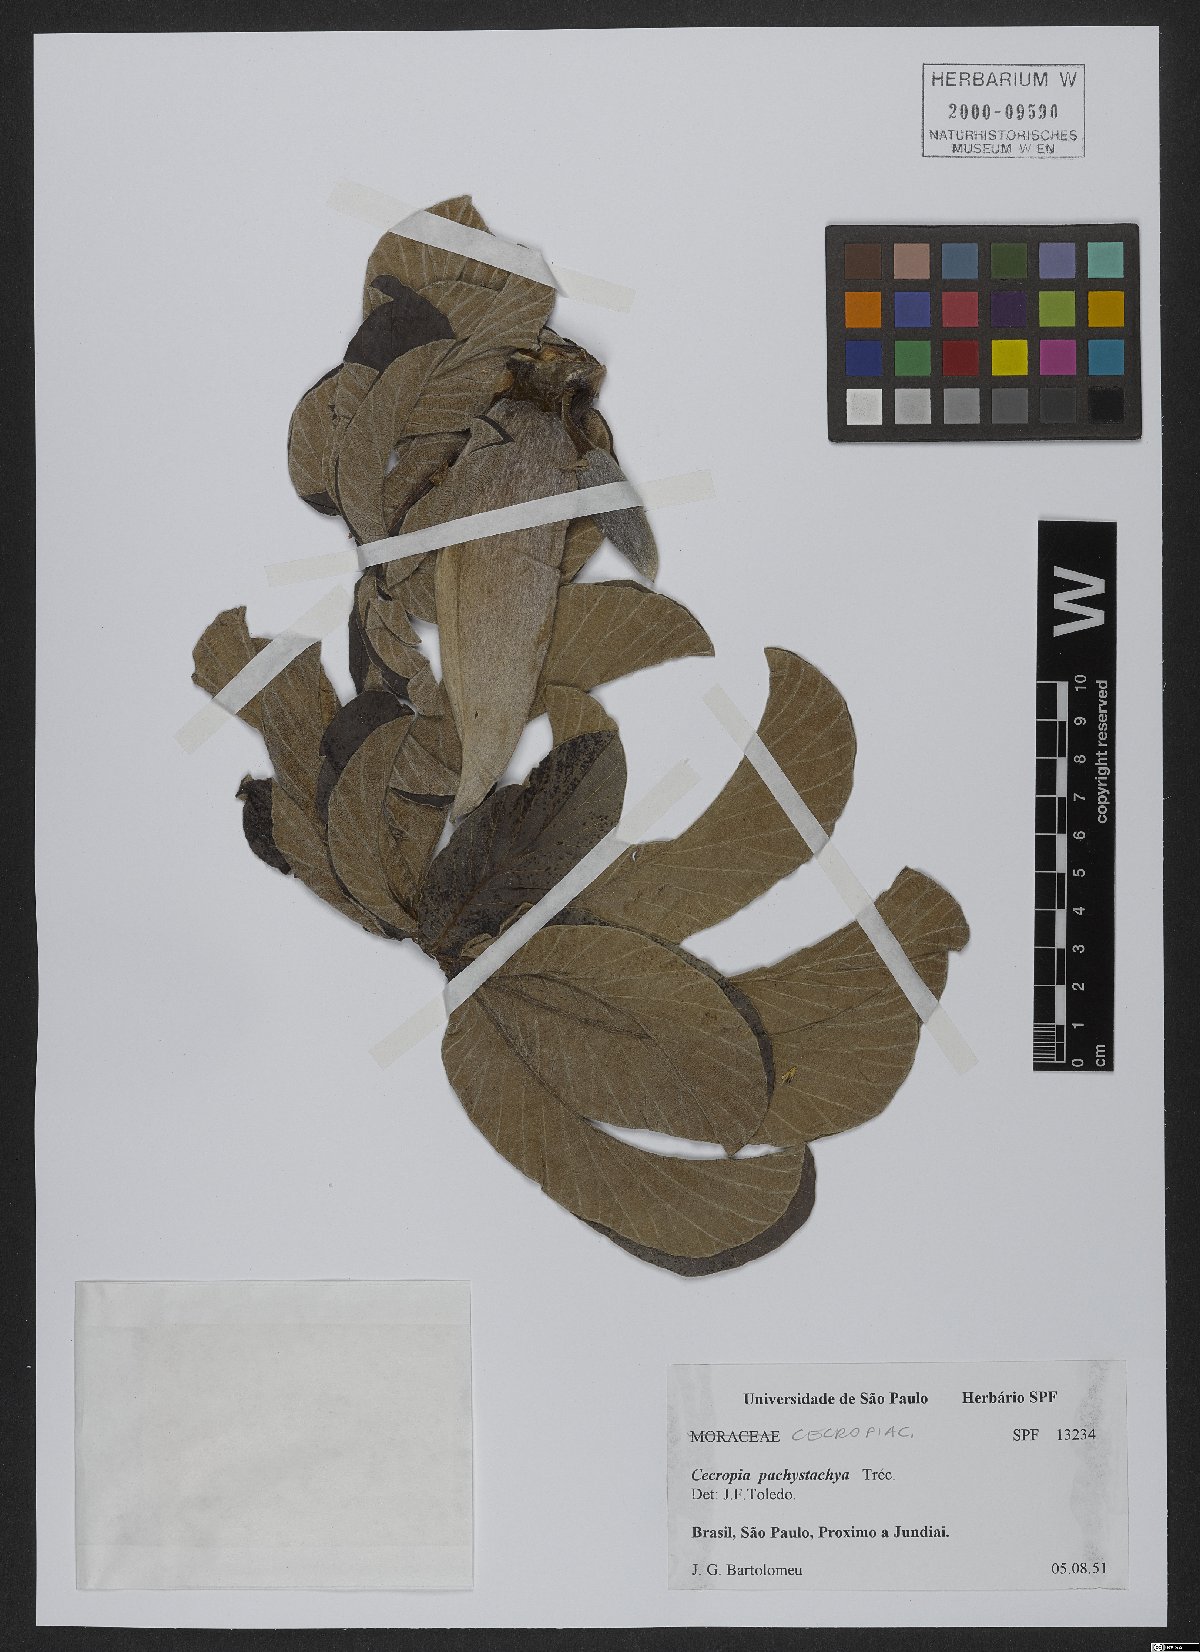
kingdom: Plantae
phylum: Tracheophyta
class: Magnoliopsida
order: Rosales
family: Urticaceae
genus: Cecropia
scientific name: Cecropia pachystachya
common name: Ambay pumpwood
